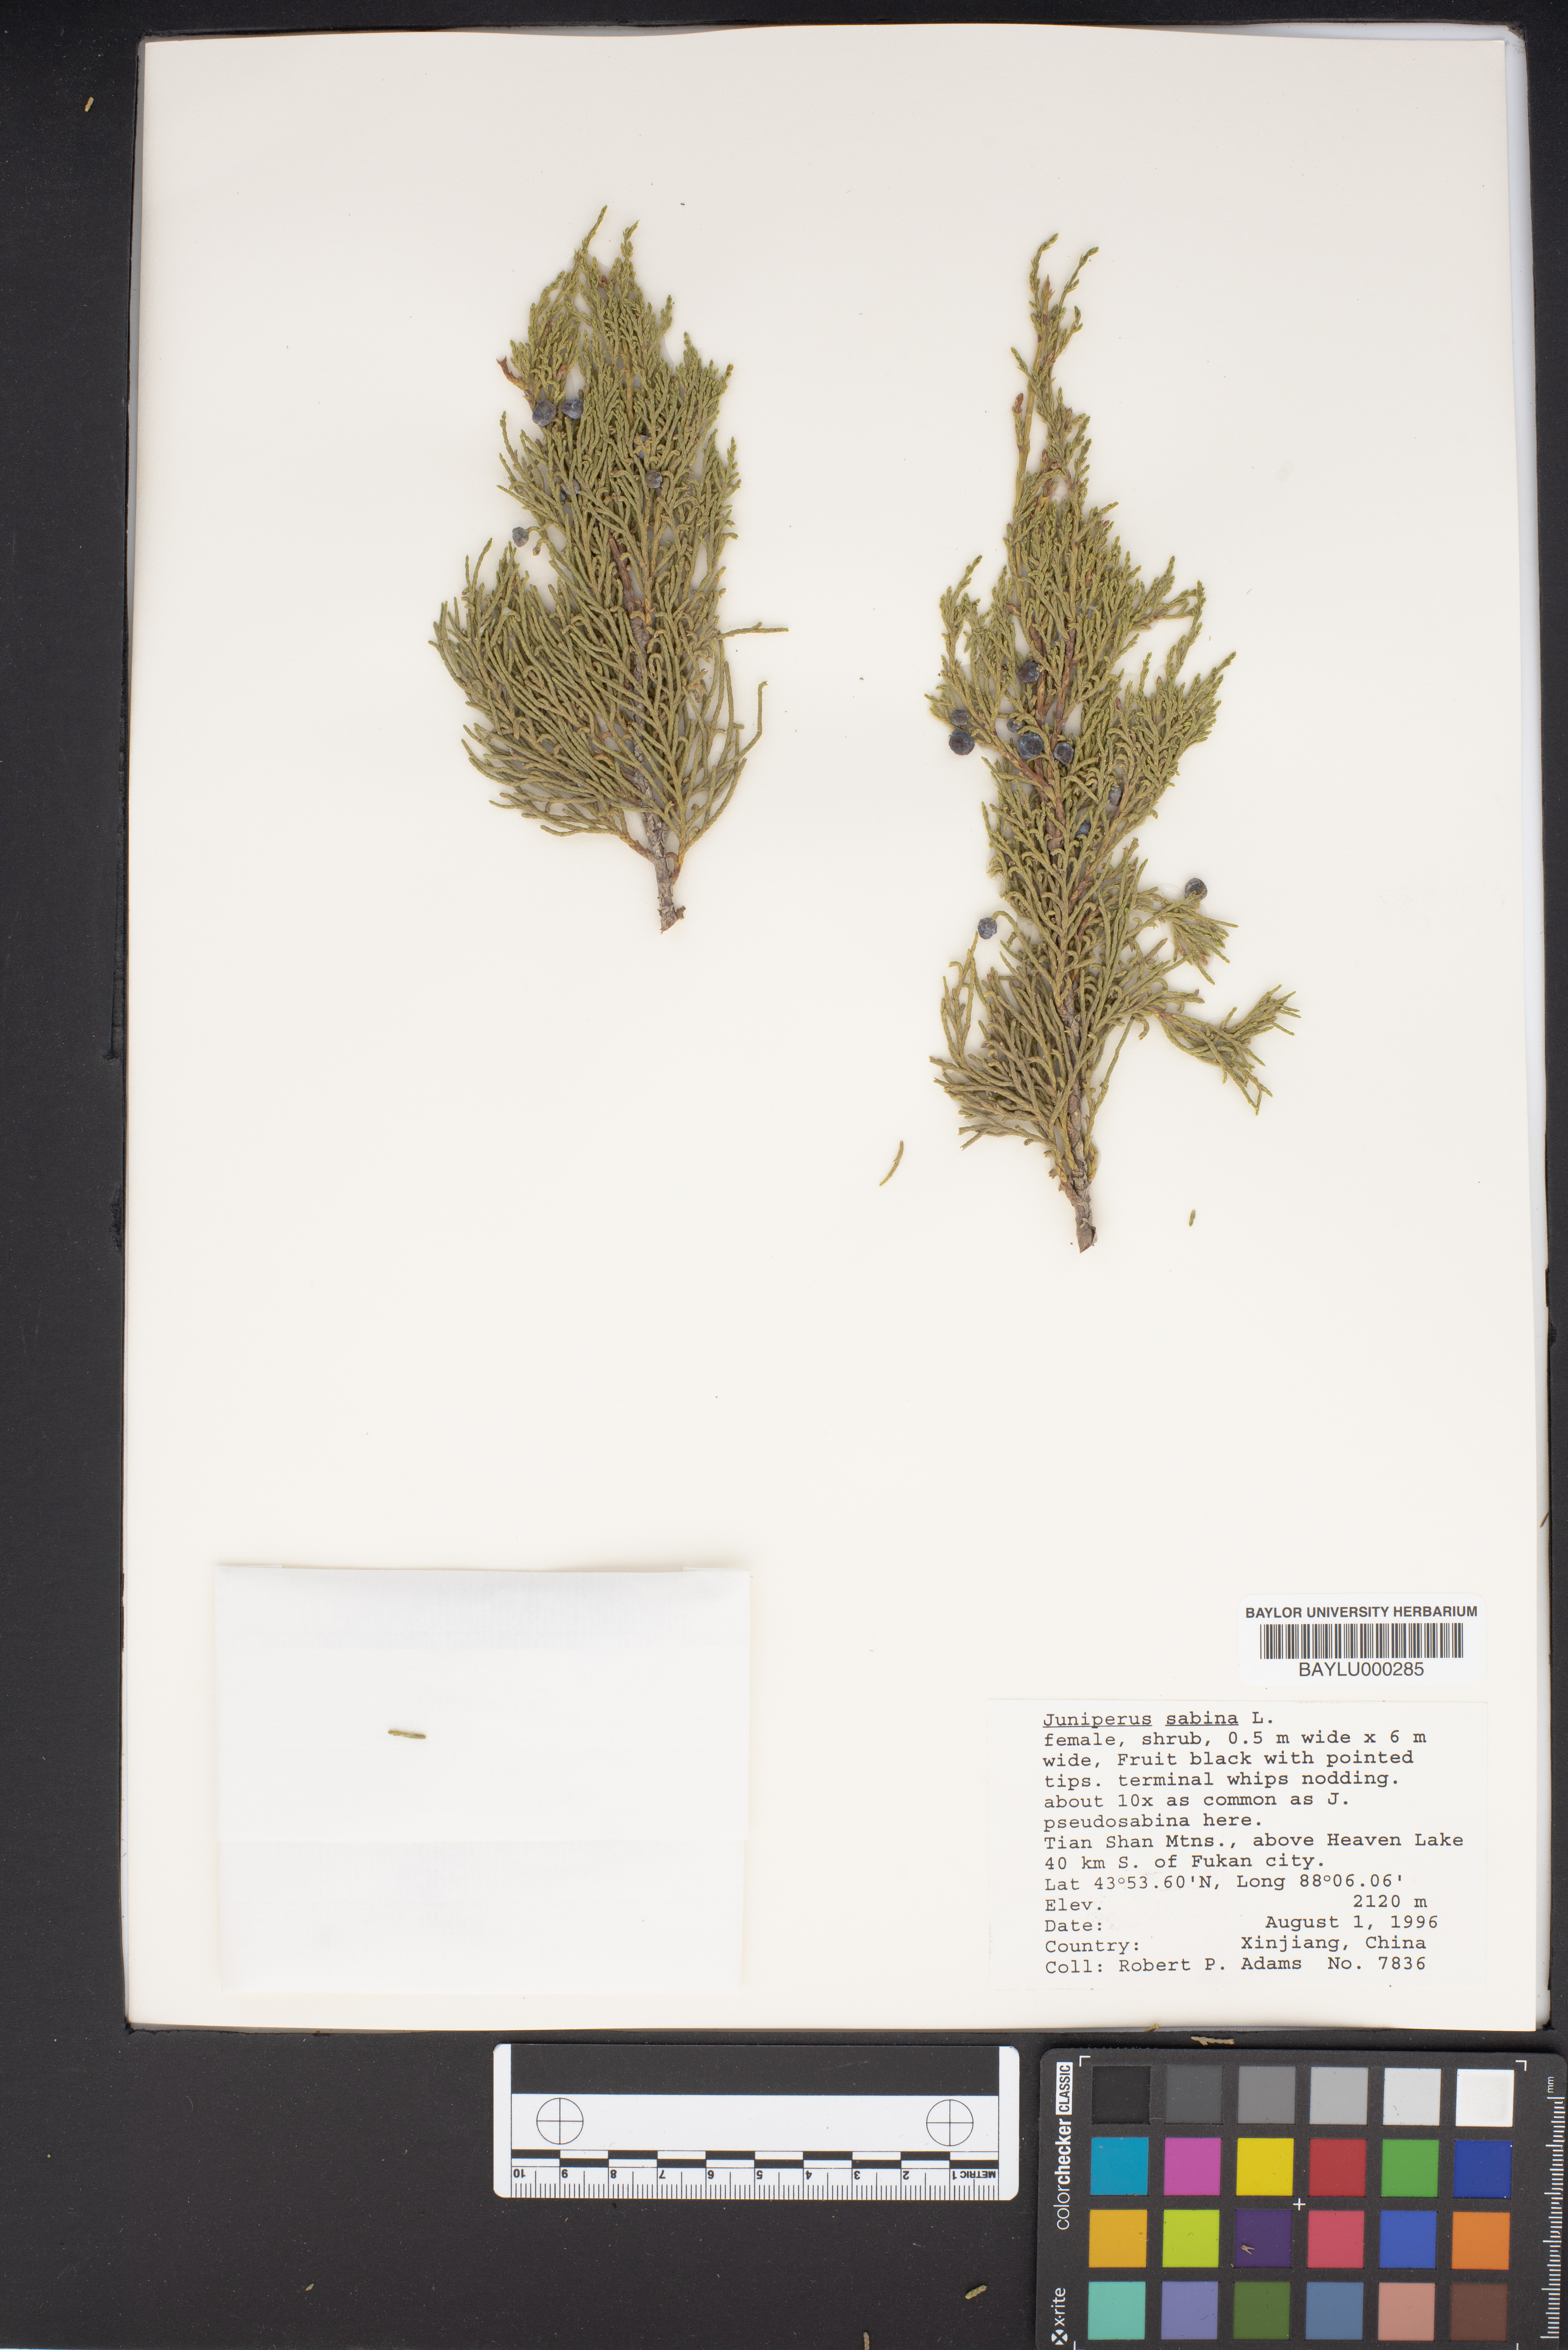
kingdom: Plantae
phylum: Tracheophyta
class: Pinopsida
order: Pinales
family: Cupressaceae
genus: Juniperus
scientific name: Juniperus sabina
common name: Savin
